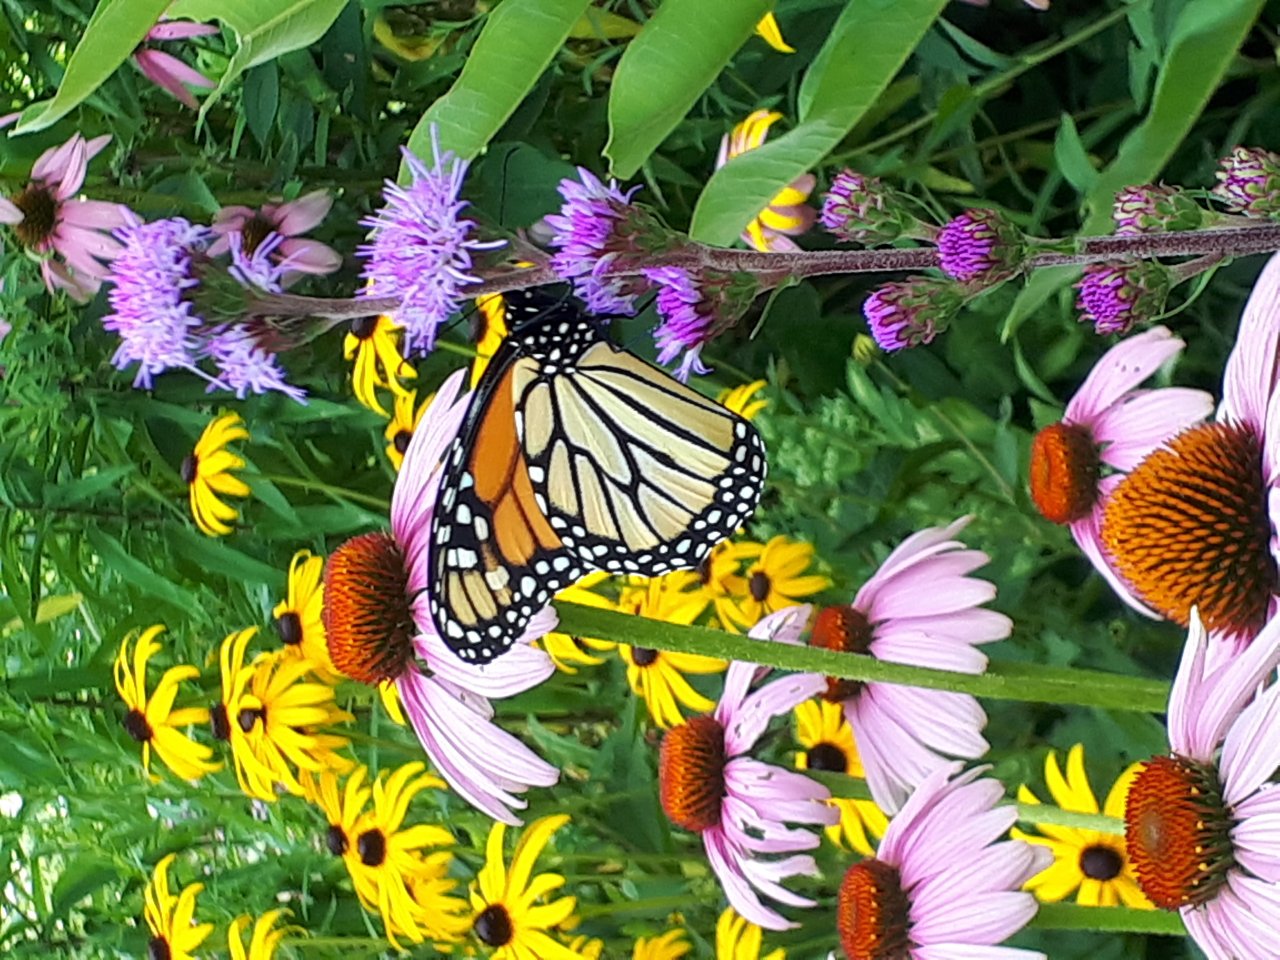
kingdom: Animalia
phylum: Arthropoda
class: Insecta
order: Lepidoptera
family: Nymphalidae
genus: Danaus
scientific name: Danaus plexippus
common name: Monarch
